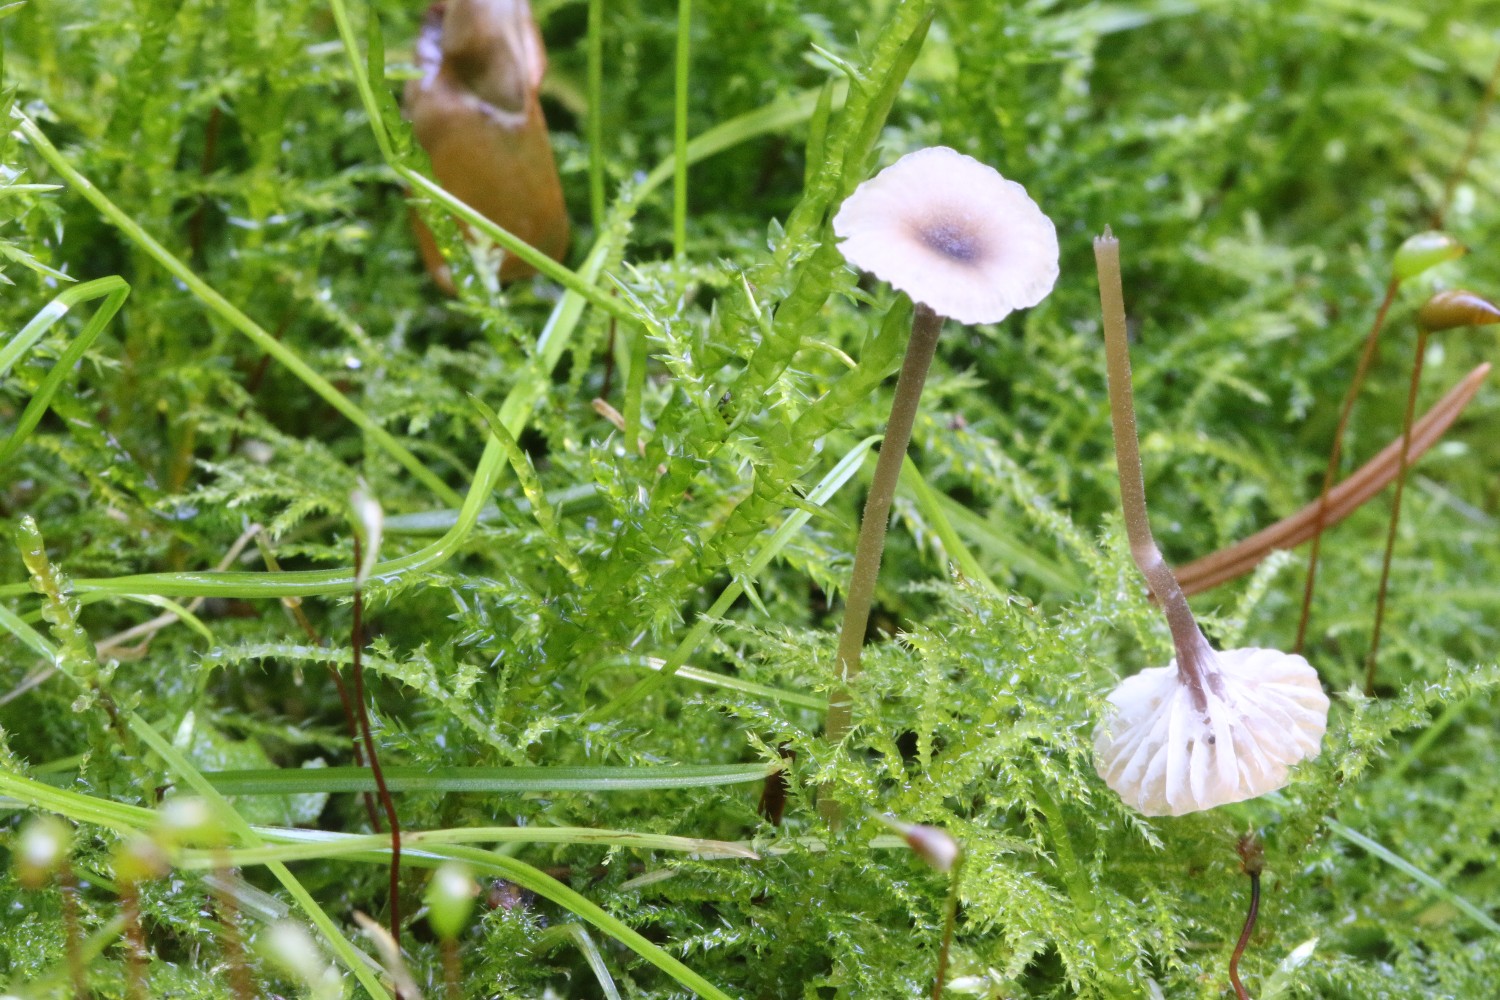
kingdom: Fungi
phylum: Basidiomycota
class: Agaricomycetes
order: Hymenochaetales
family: Rickenellaceae
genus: Rickenella
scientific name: Rickenella swartzii
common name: finstokket mosnavlehat
